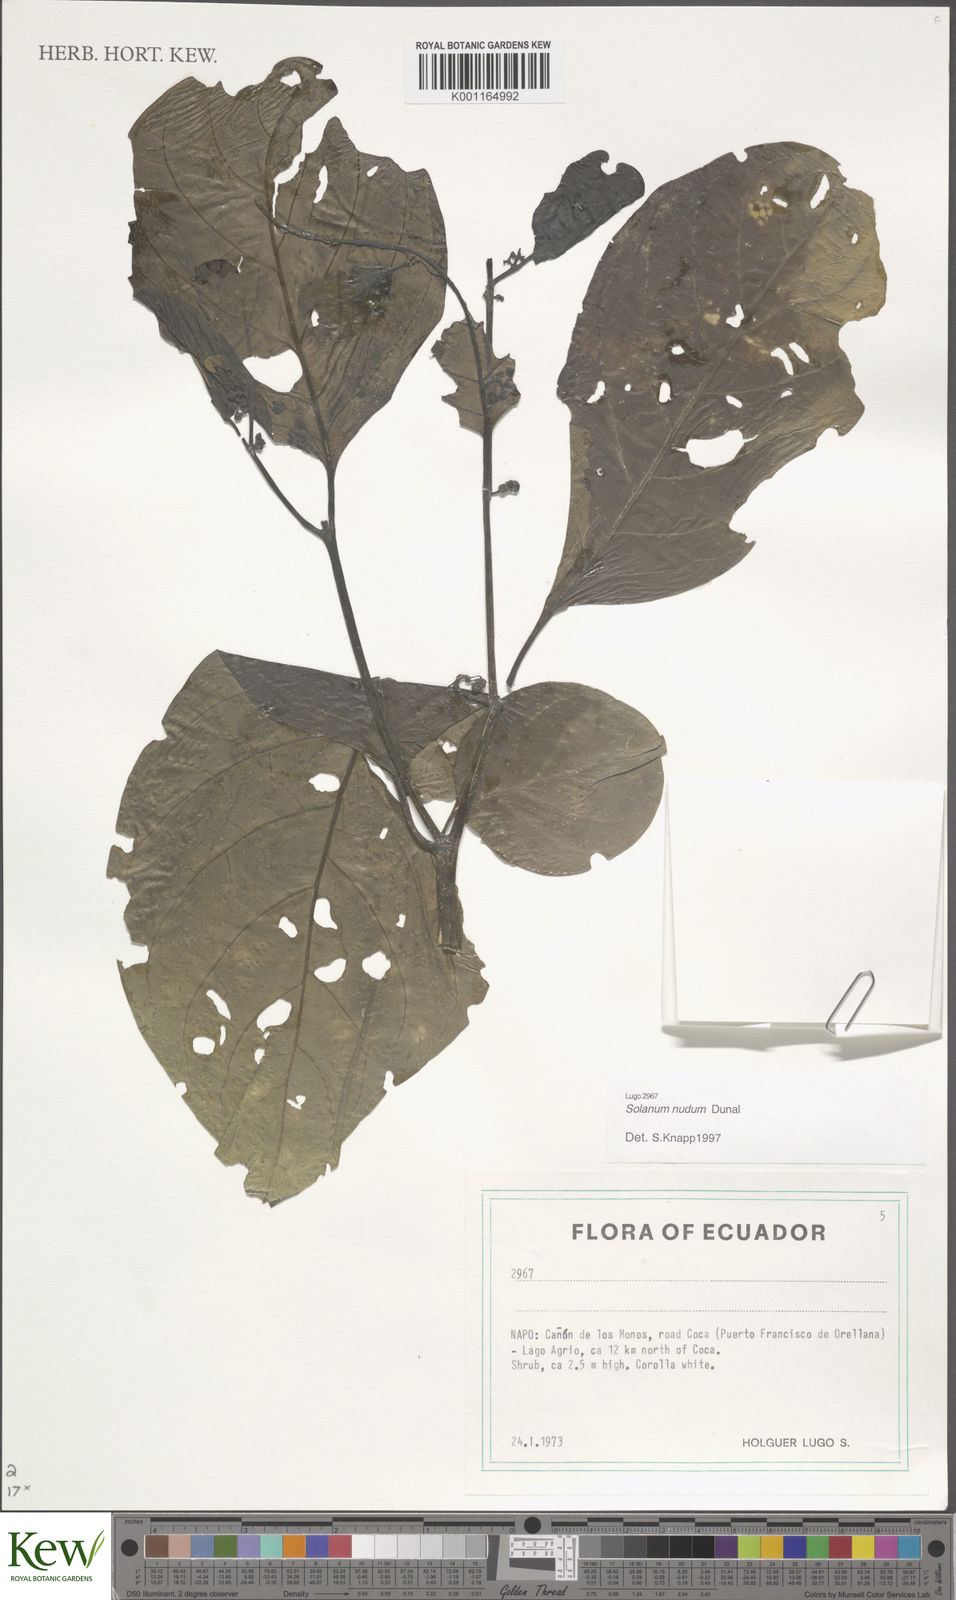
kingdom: Plantae
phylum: Tracheophyta
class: Magnoliopsida
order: Solanales
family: Solanaceae
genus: Solanum
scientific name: Solanum nudum
